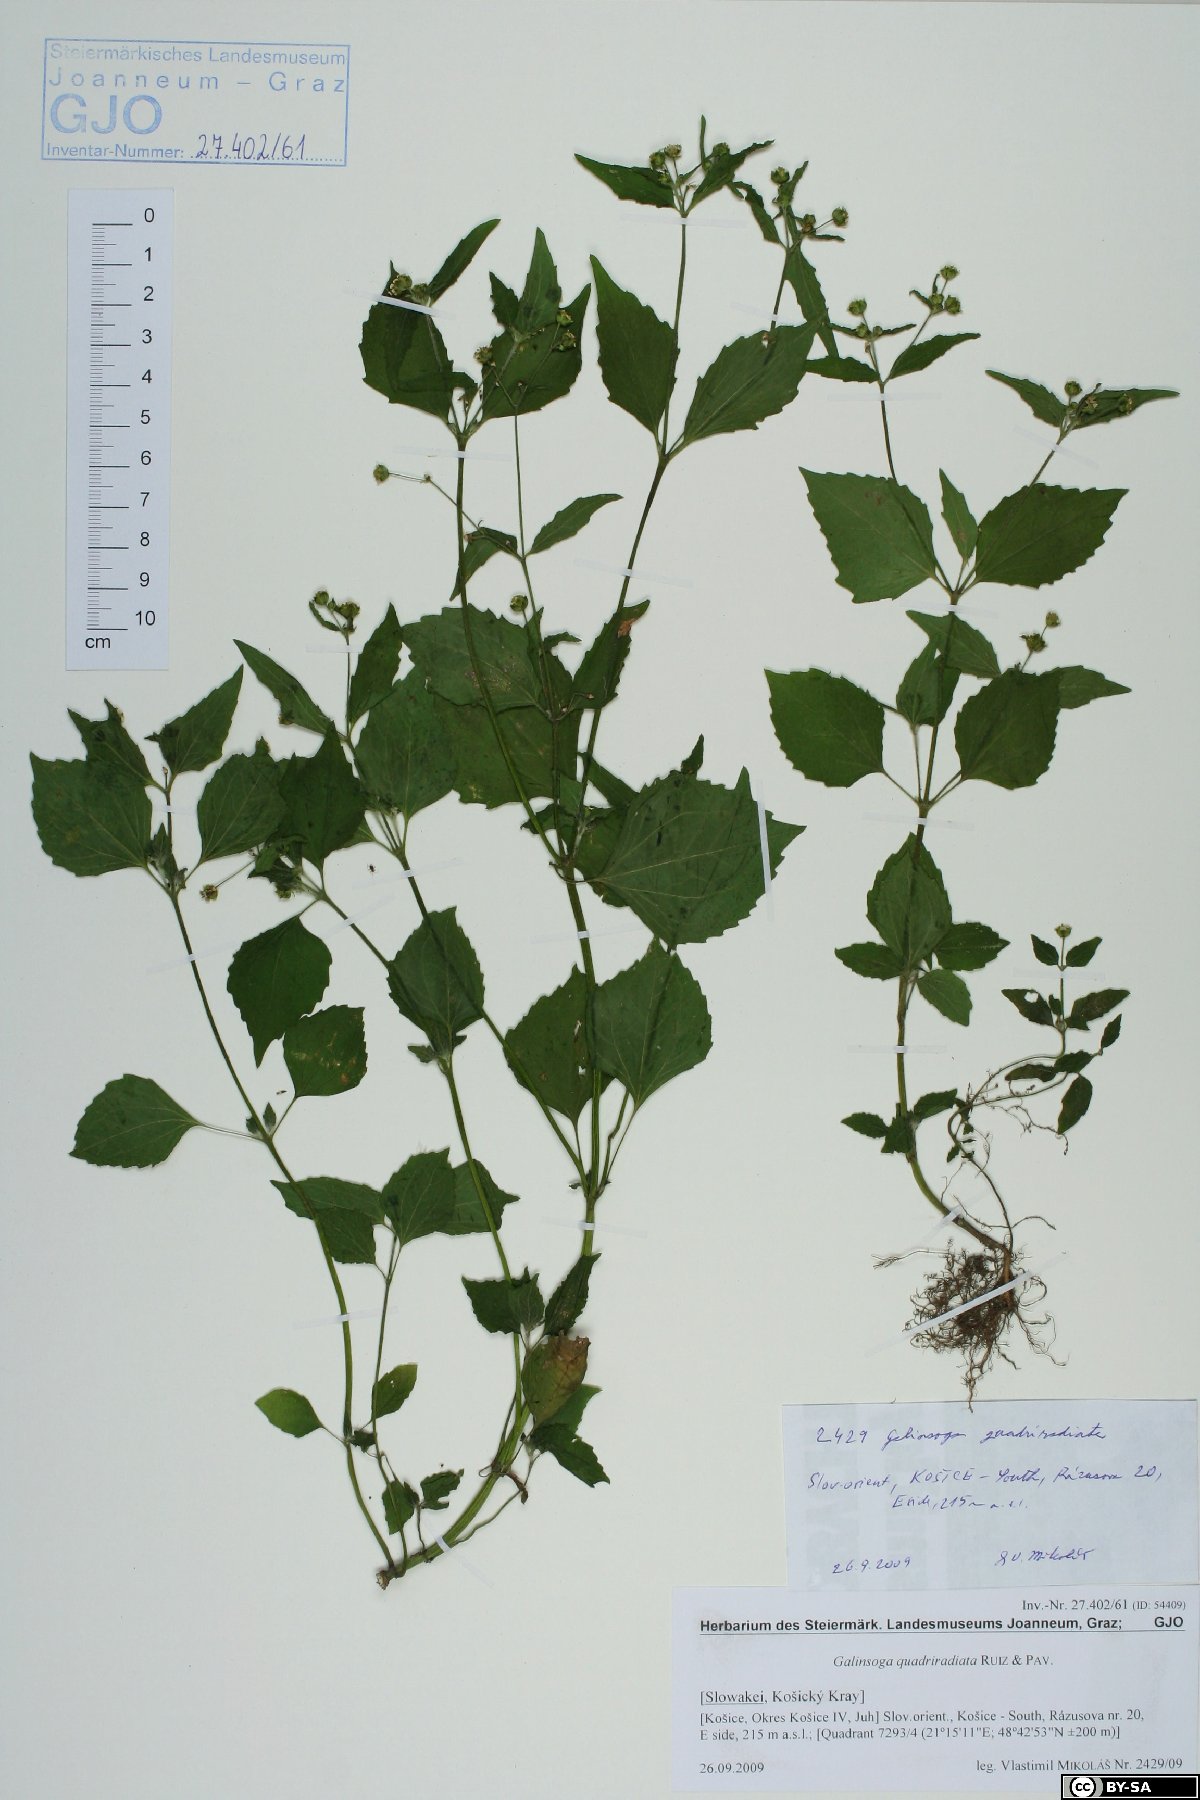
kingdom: Plantae
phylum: Tracheophyta
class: Magnoliopsida
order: Asterales
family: Asteraceae
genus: Galinsoga
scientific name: Galinsoga quadriradiata
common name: Shaggy soldier
